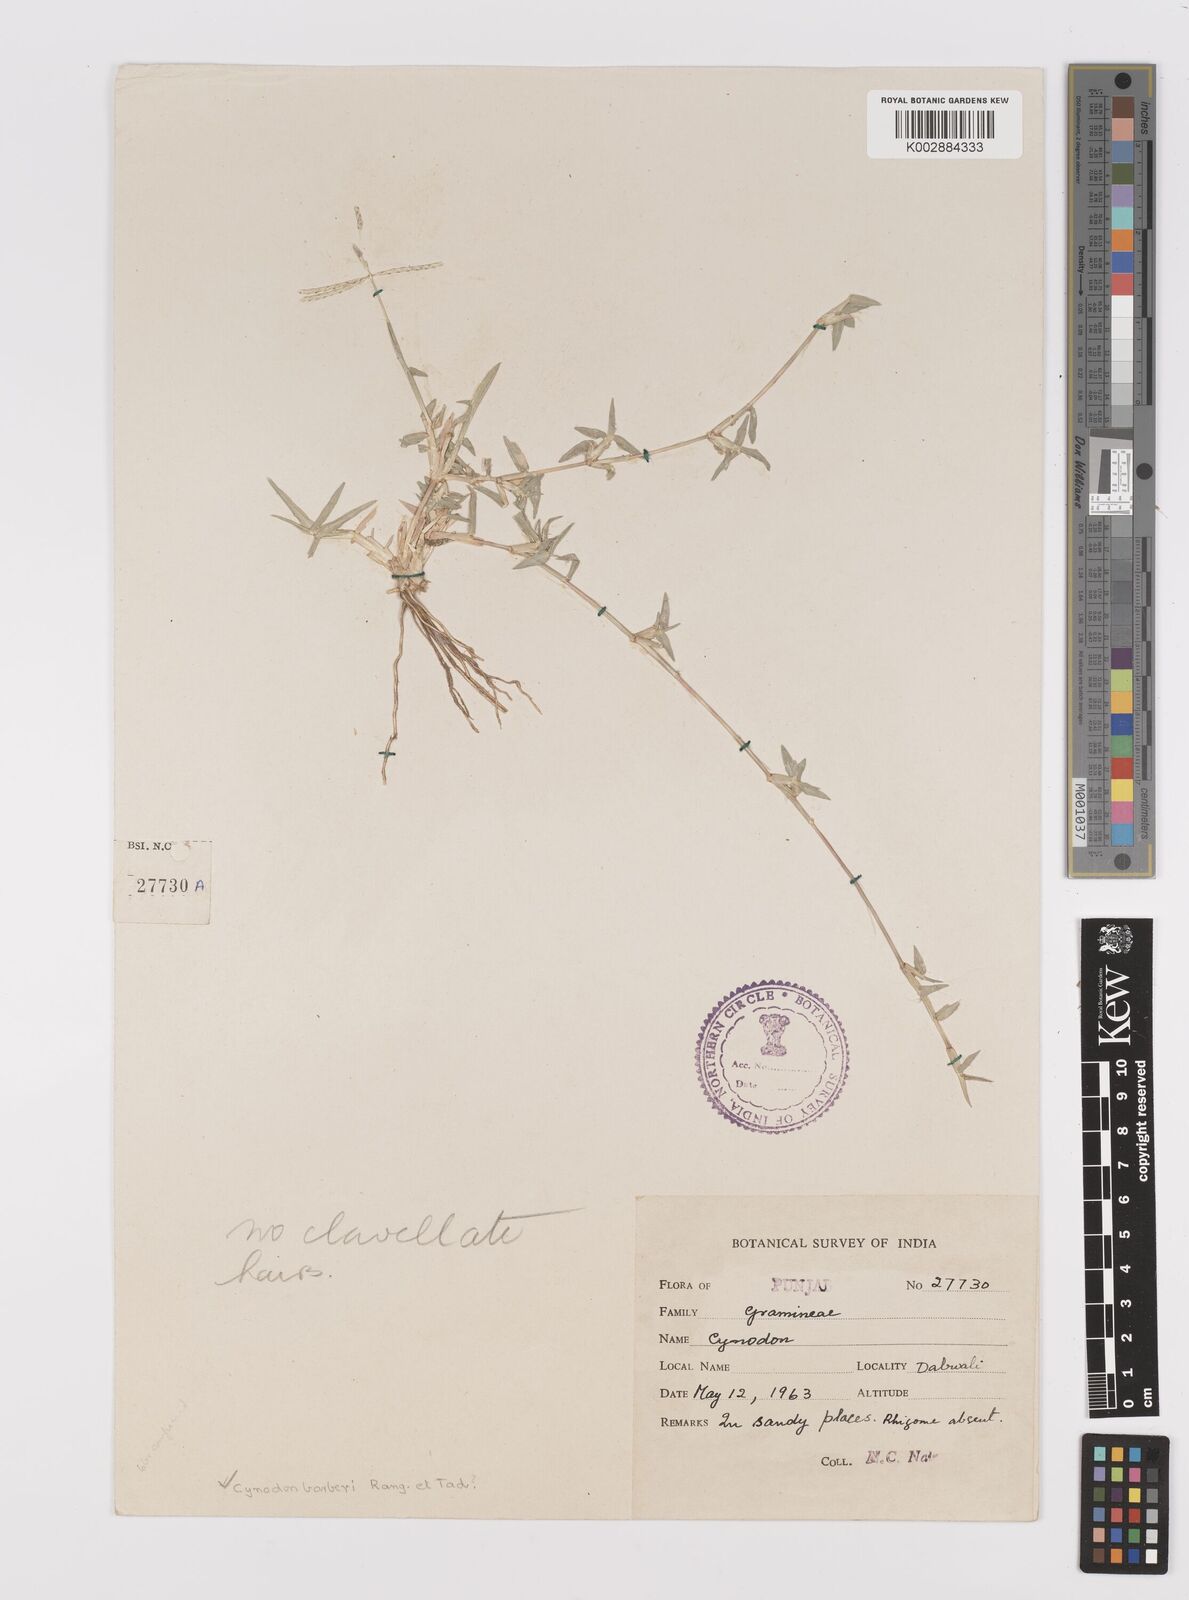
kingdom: Plantae
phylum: Tracheophyta
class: Liliopsida
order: Poales
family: Poaceae
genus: Cynodon
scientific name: Cynodon dactylon
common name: Bermuda grass
